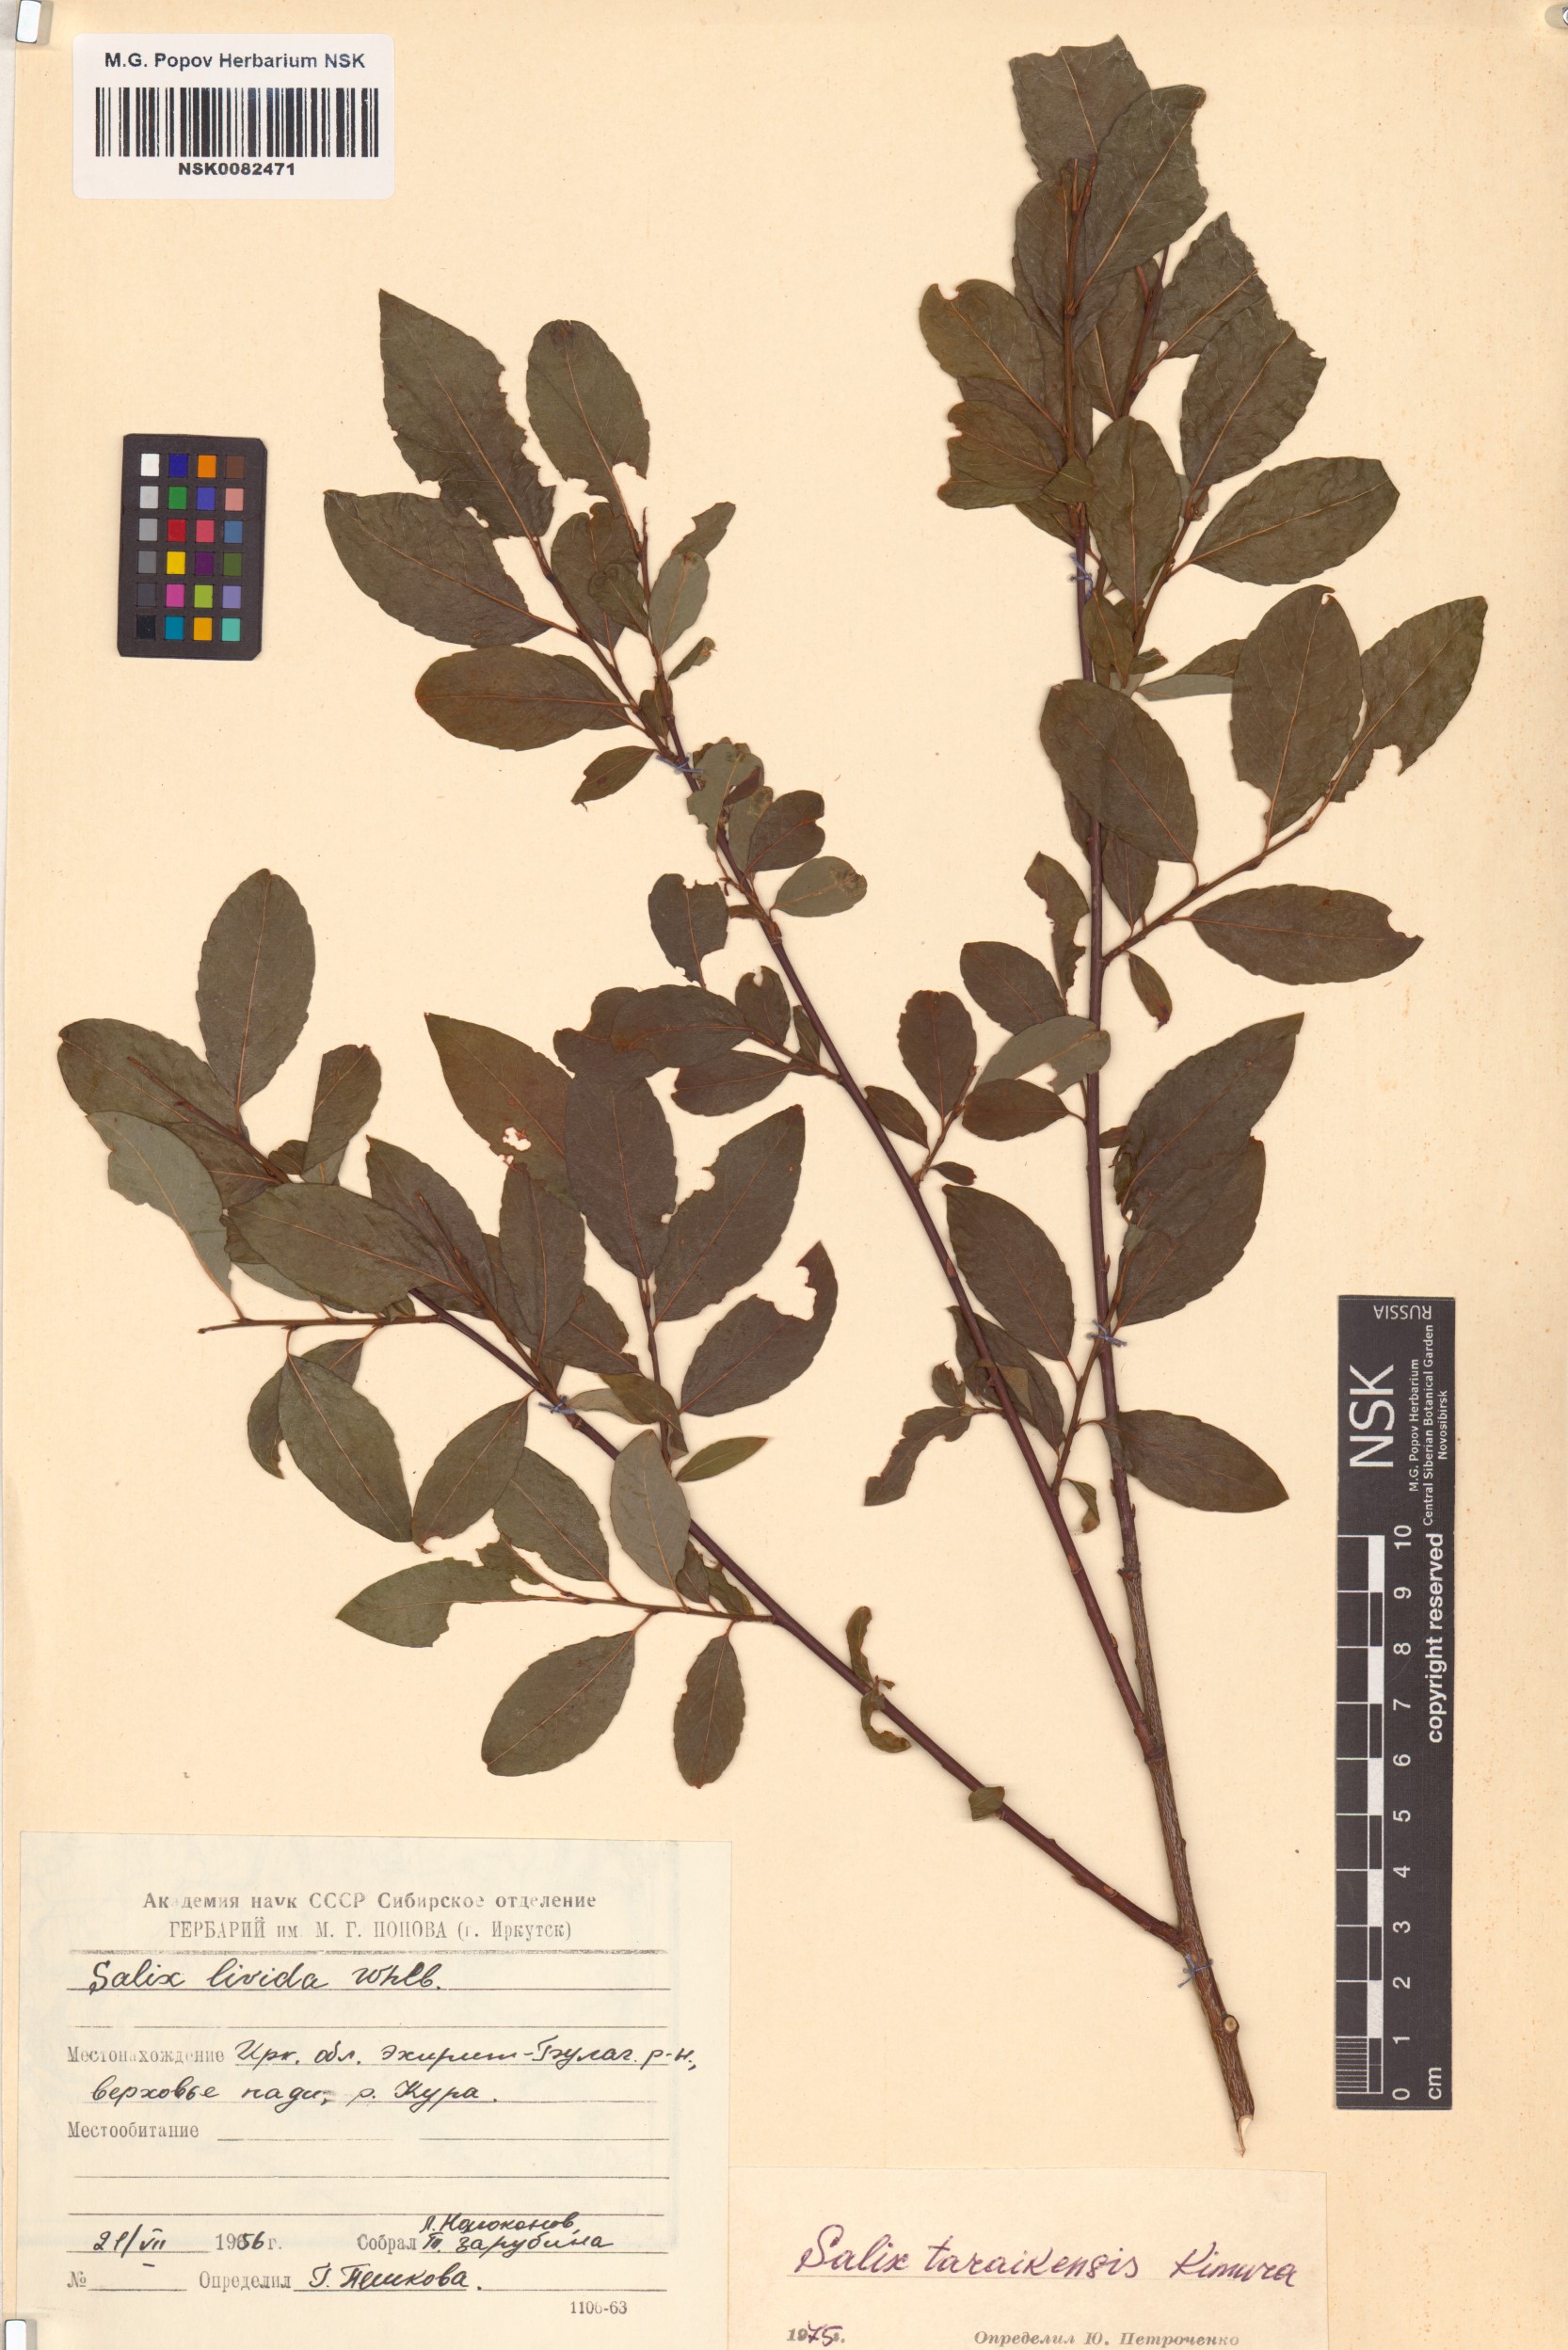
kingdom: Plantae
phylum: Tracheophyta
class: Magnoliopsida
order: Malpighiales
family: Salicaceae
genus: Salix
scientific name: Salix taraikensis
